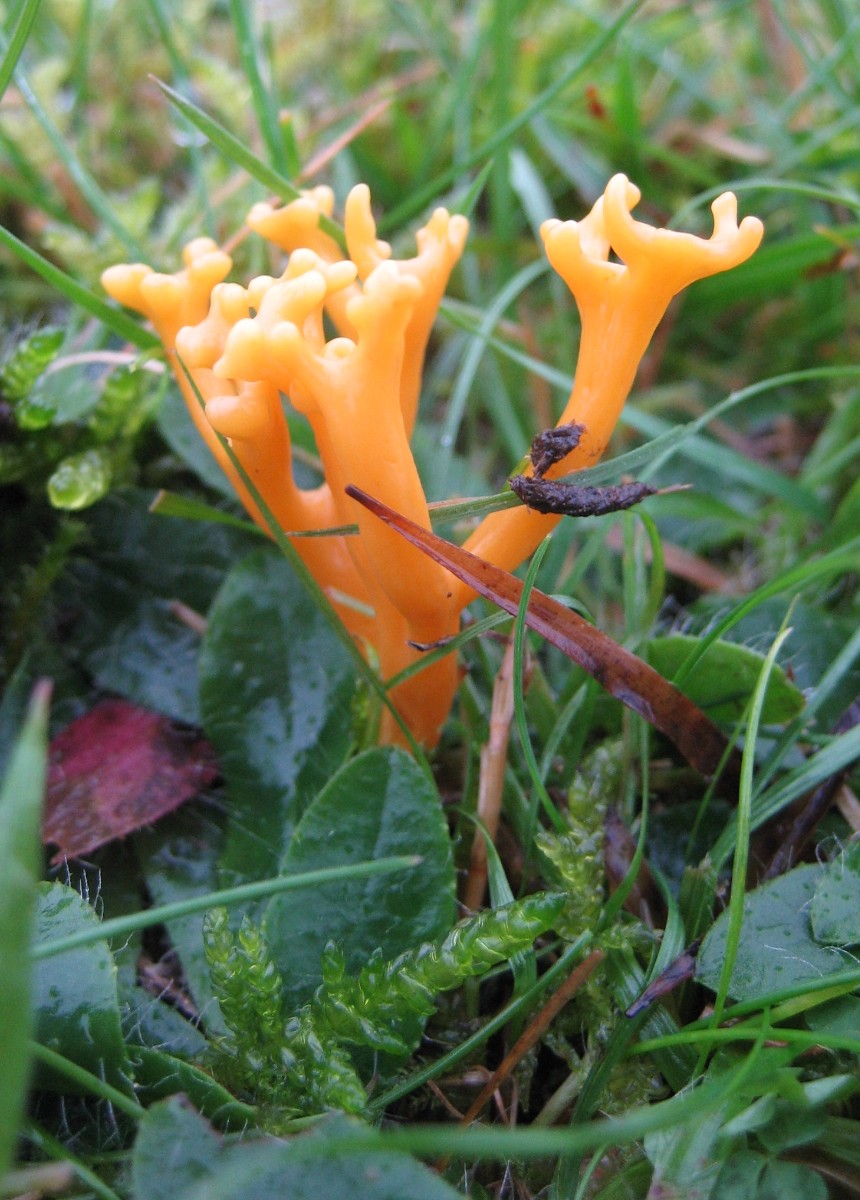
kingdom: Fungi
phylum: Basidiomycota
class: Agaricomycetes
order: Agaricales
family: Clavariaceae
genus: Clavulinopsis
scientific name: Clavulinopsis corniculata
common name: eng-køllesvamp
